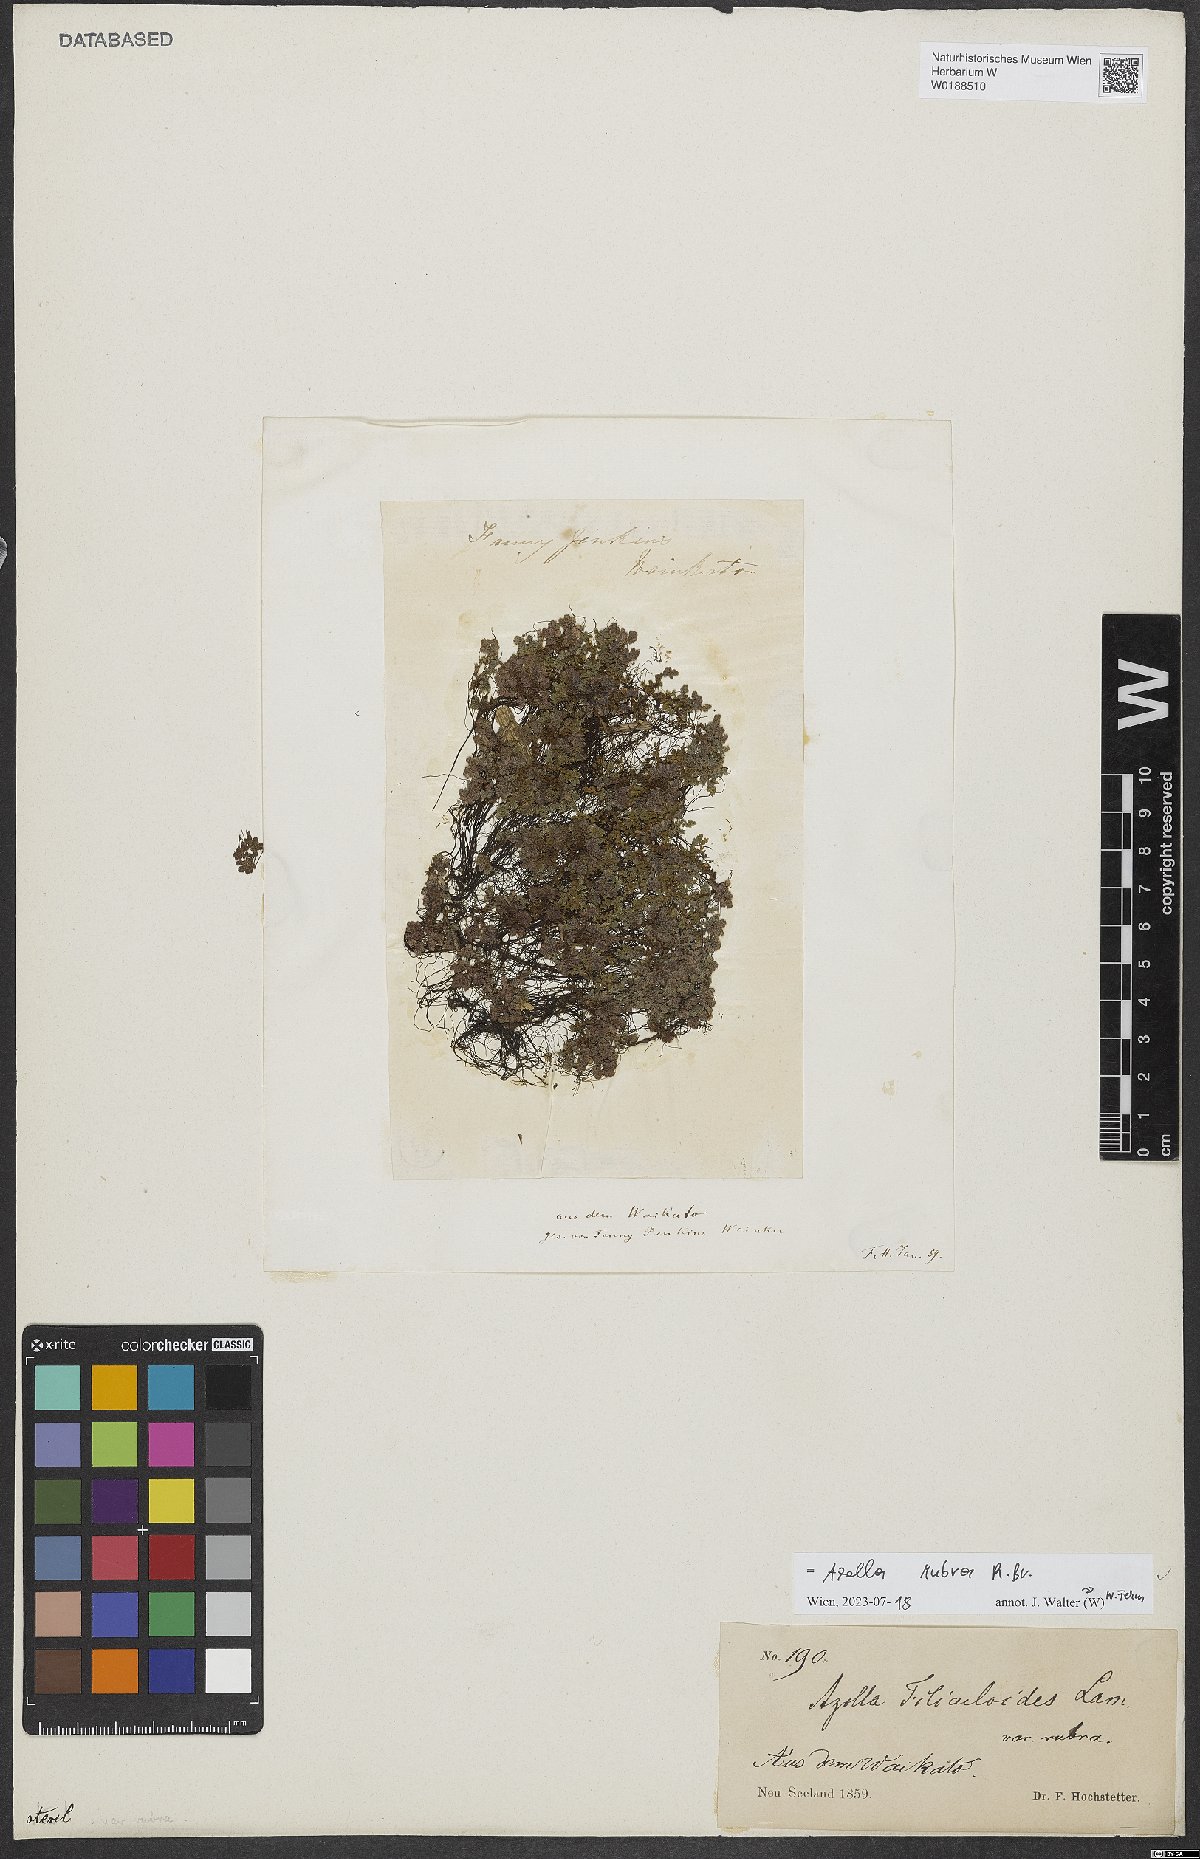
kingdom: Plantae
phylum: Tracheophyta
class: Polypodiopsida
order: Salviniales
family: Salviniaceae
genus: Azolla
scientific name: Azolla rubra
